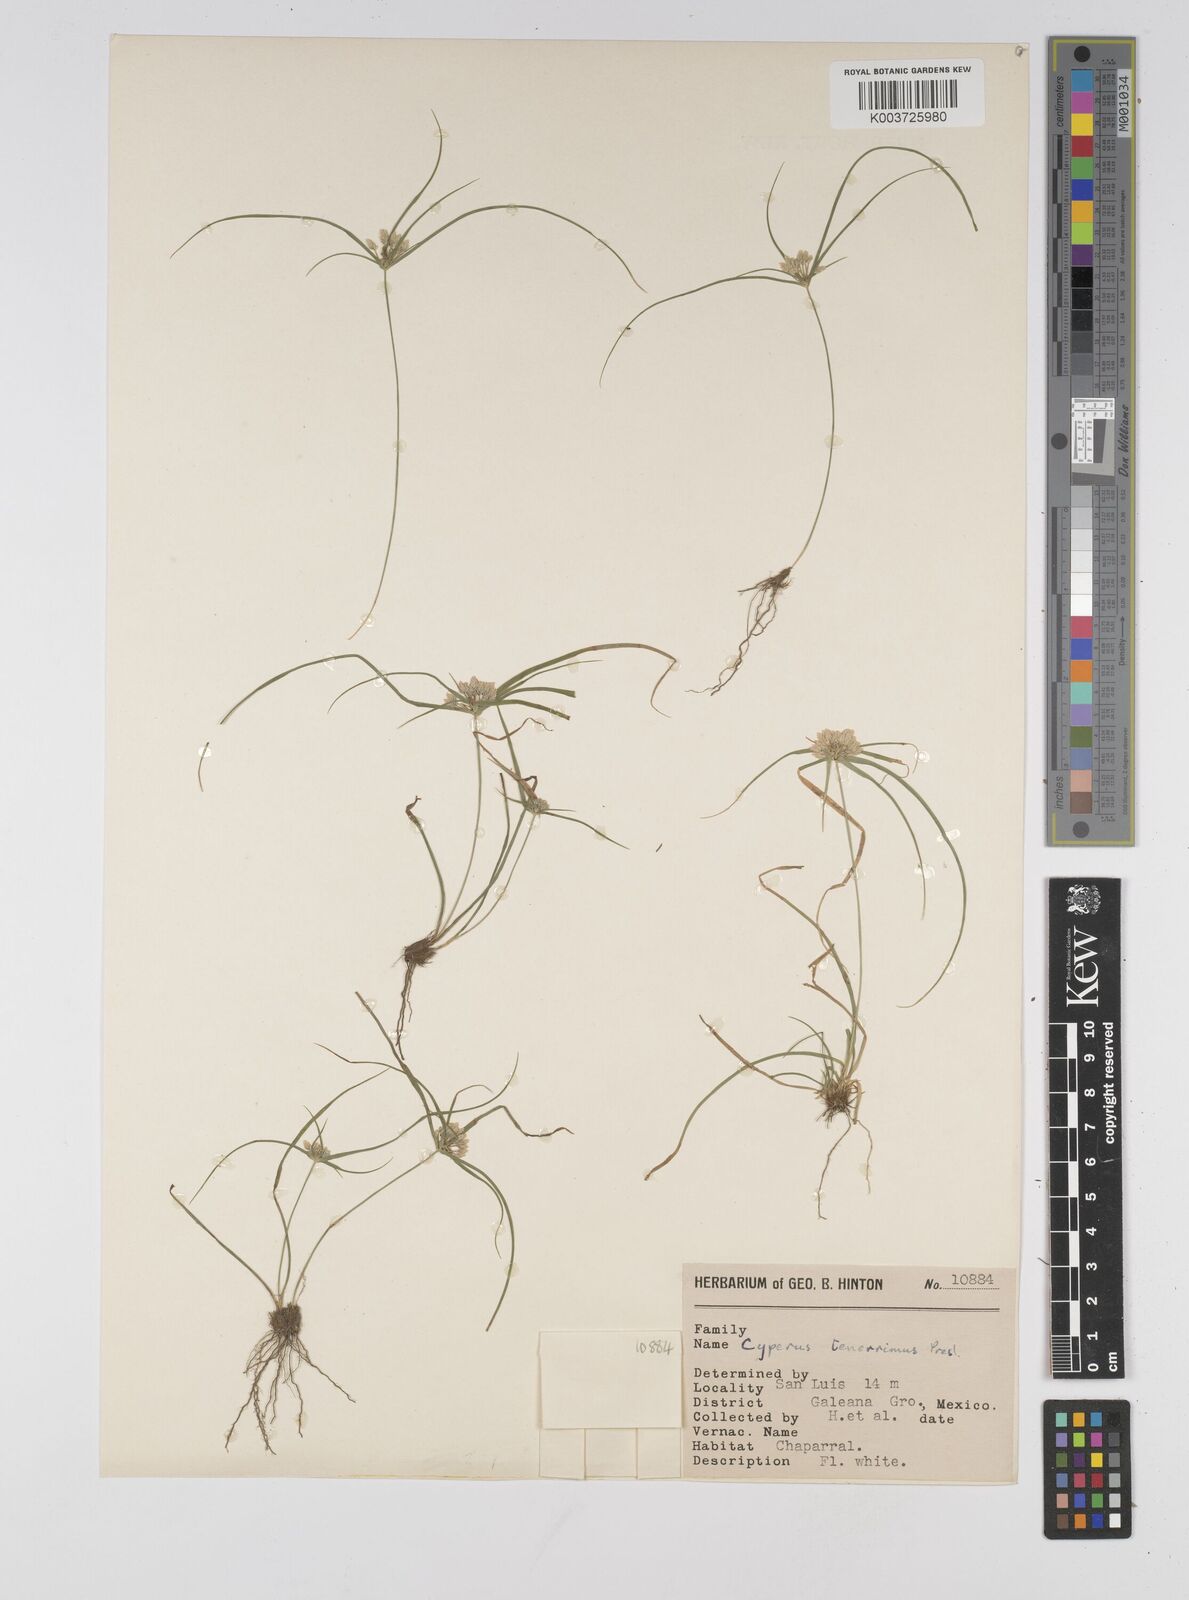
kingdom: Plantae
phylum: Tracheophyta
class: Liliopsida
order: Poales
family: Cyperaceae
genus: Cyperus
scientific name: Cyperus tenerrimus
